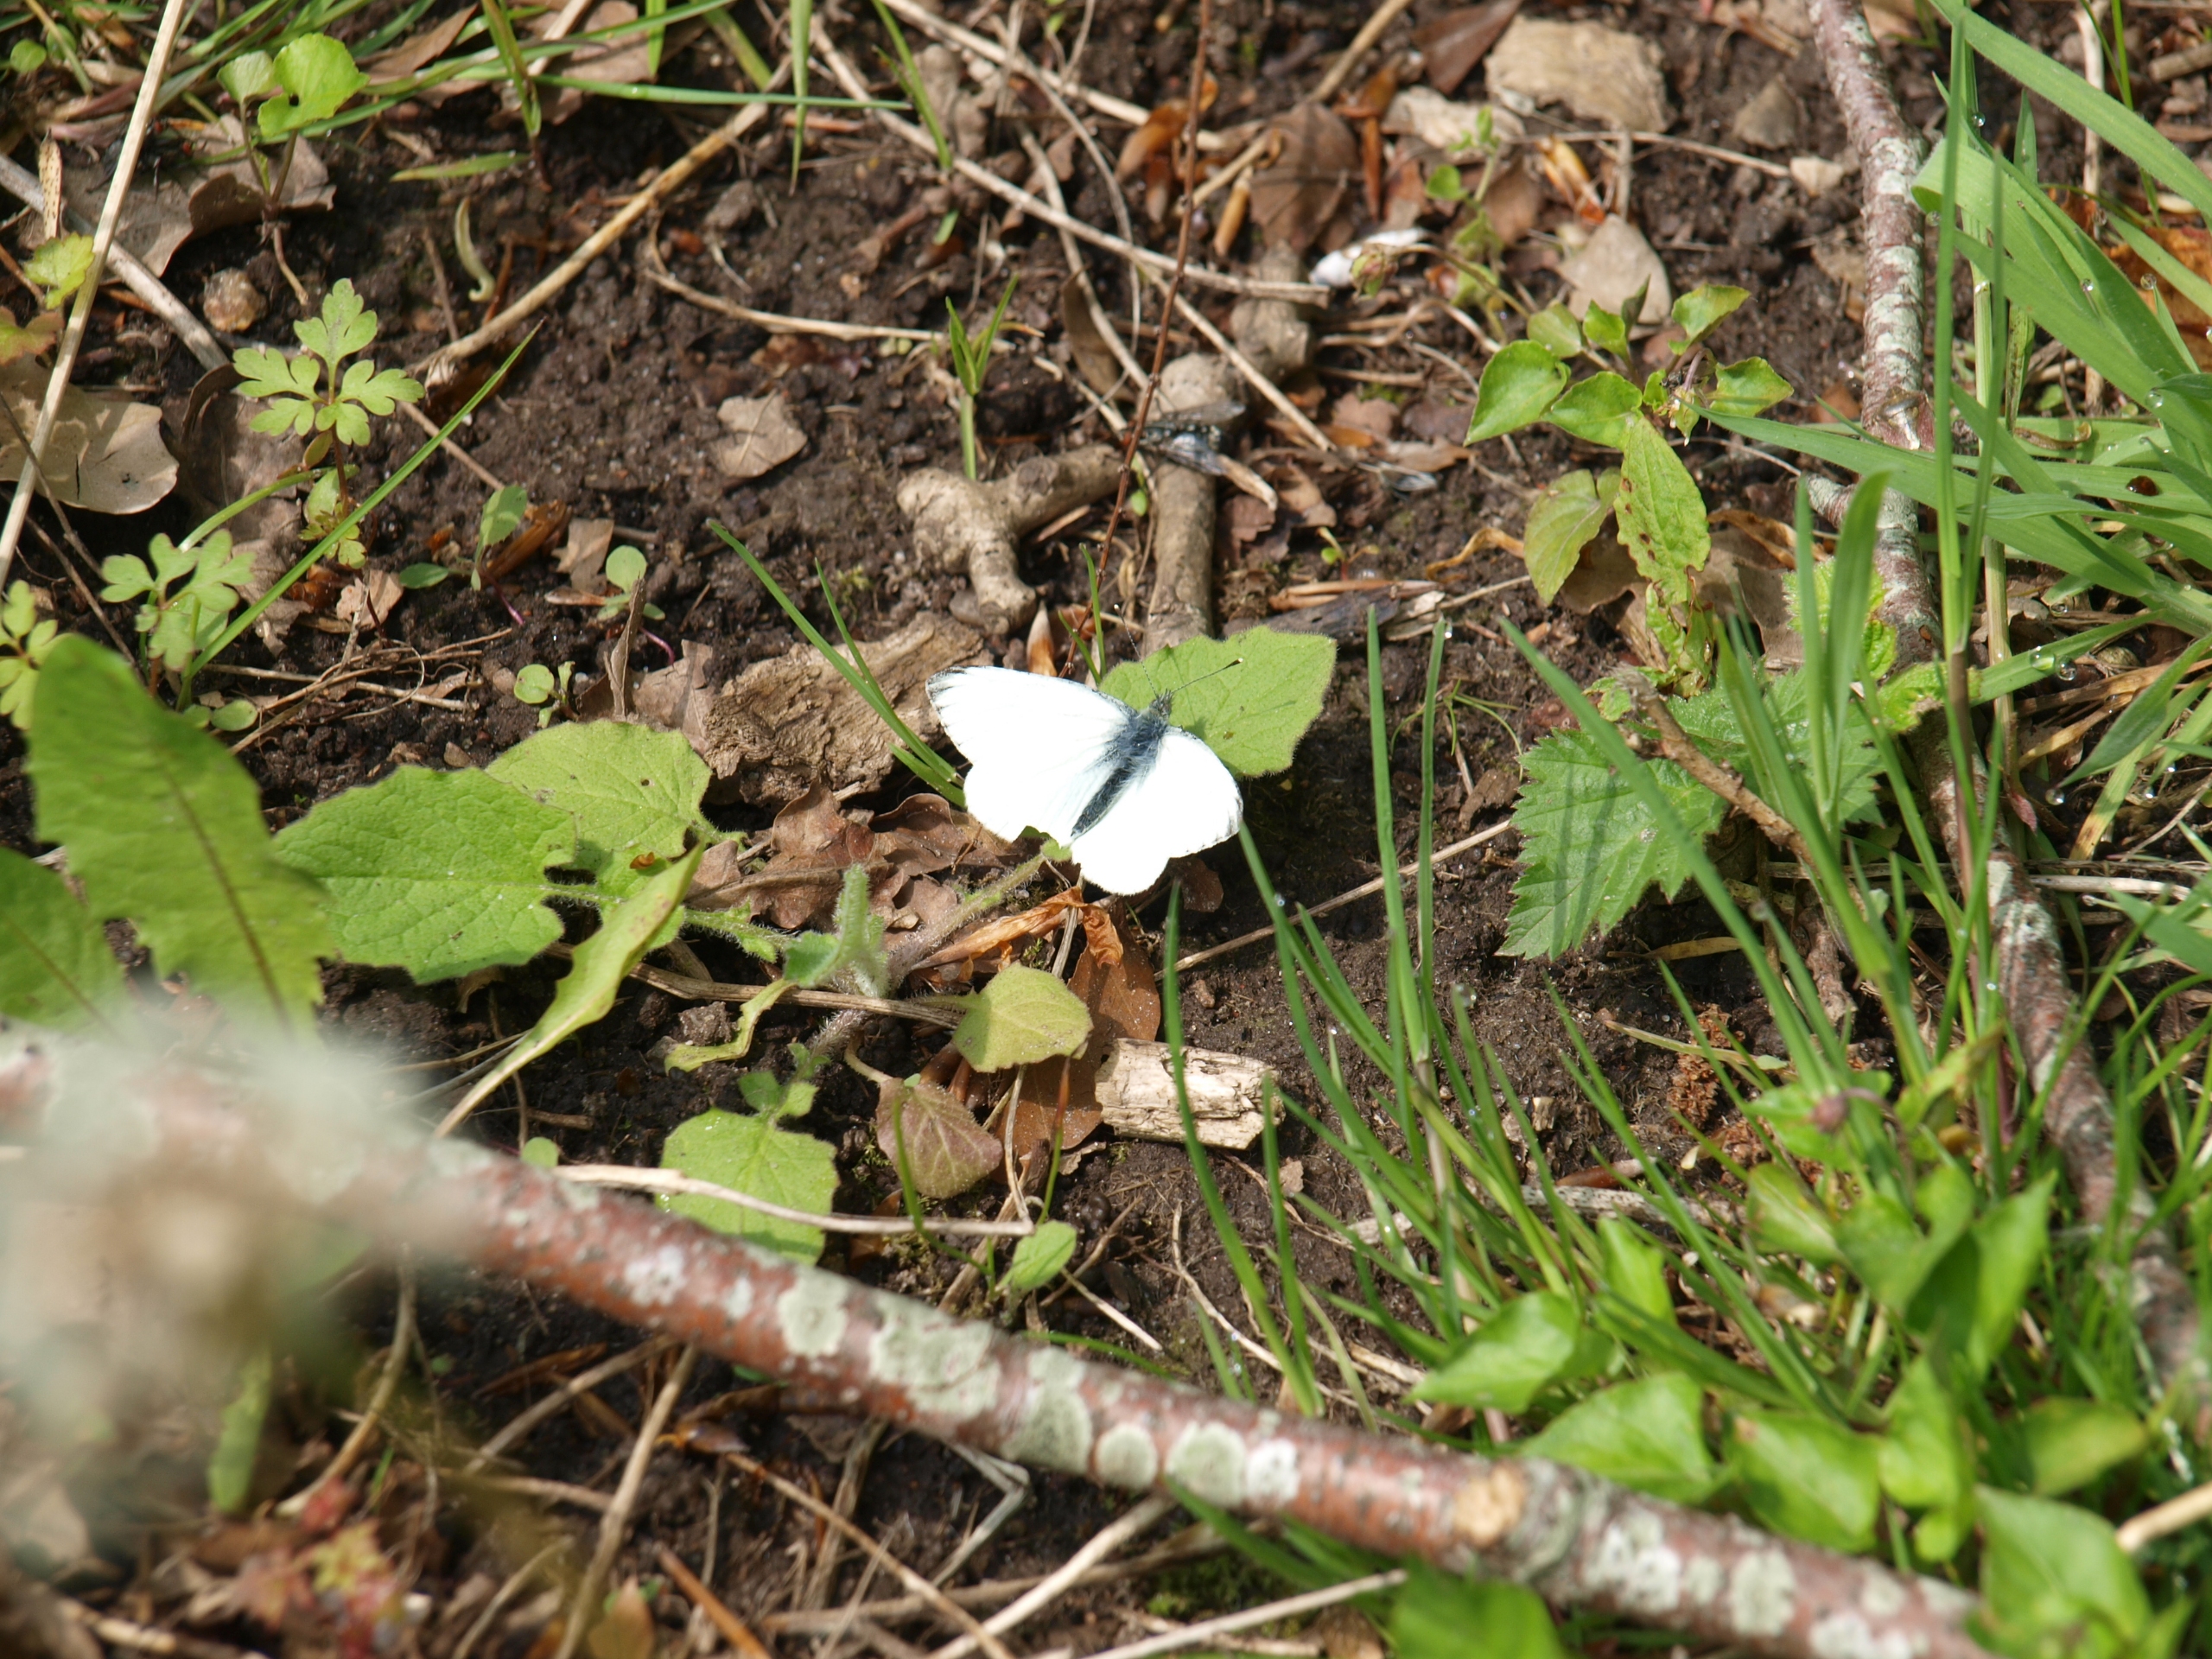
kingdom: Animalia
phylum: Arthropoda
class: Insecta
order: Lepidoptera
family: Pieridae
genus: Pieris
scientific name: Pieris napi
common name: Grønåret kålsommerfugl
